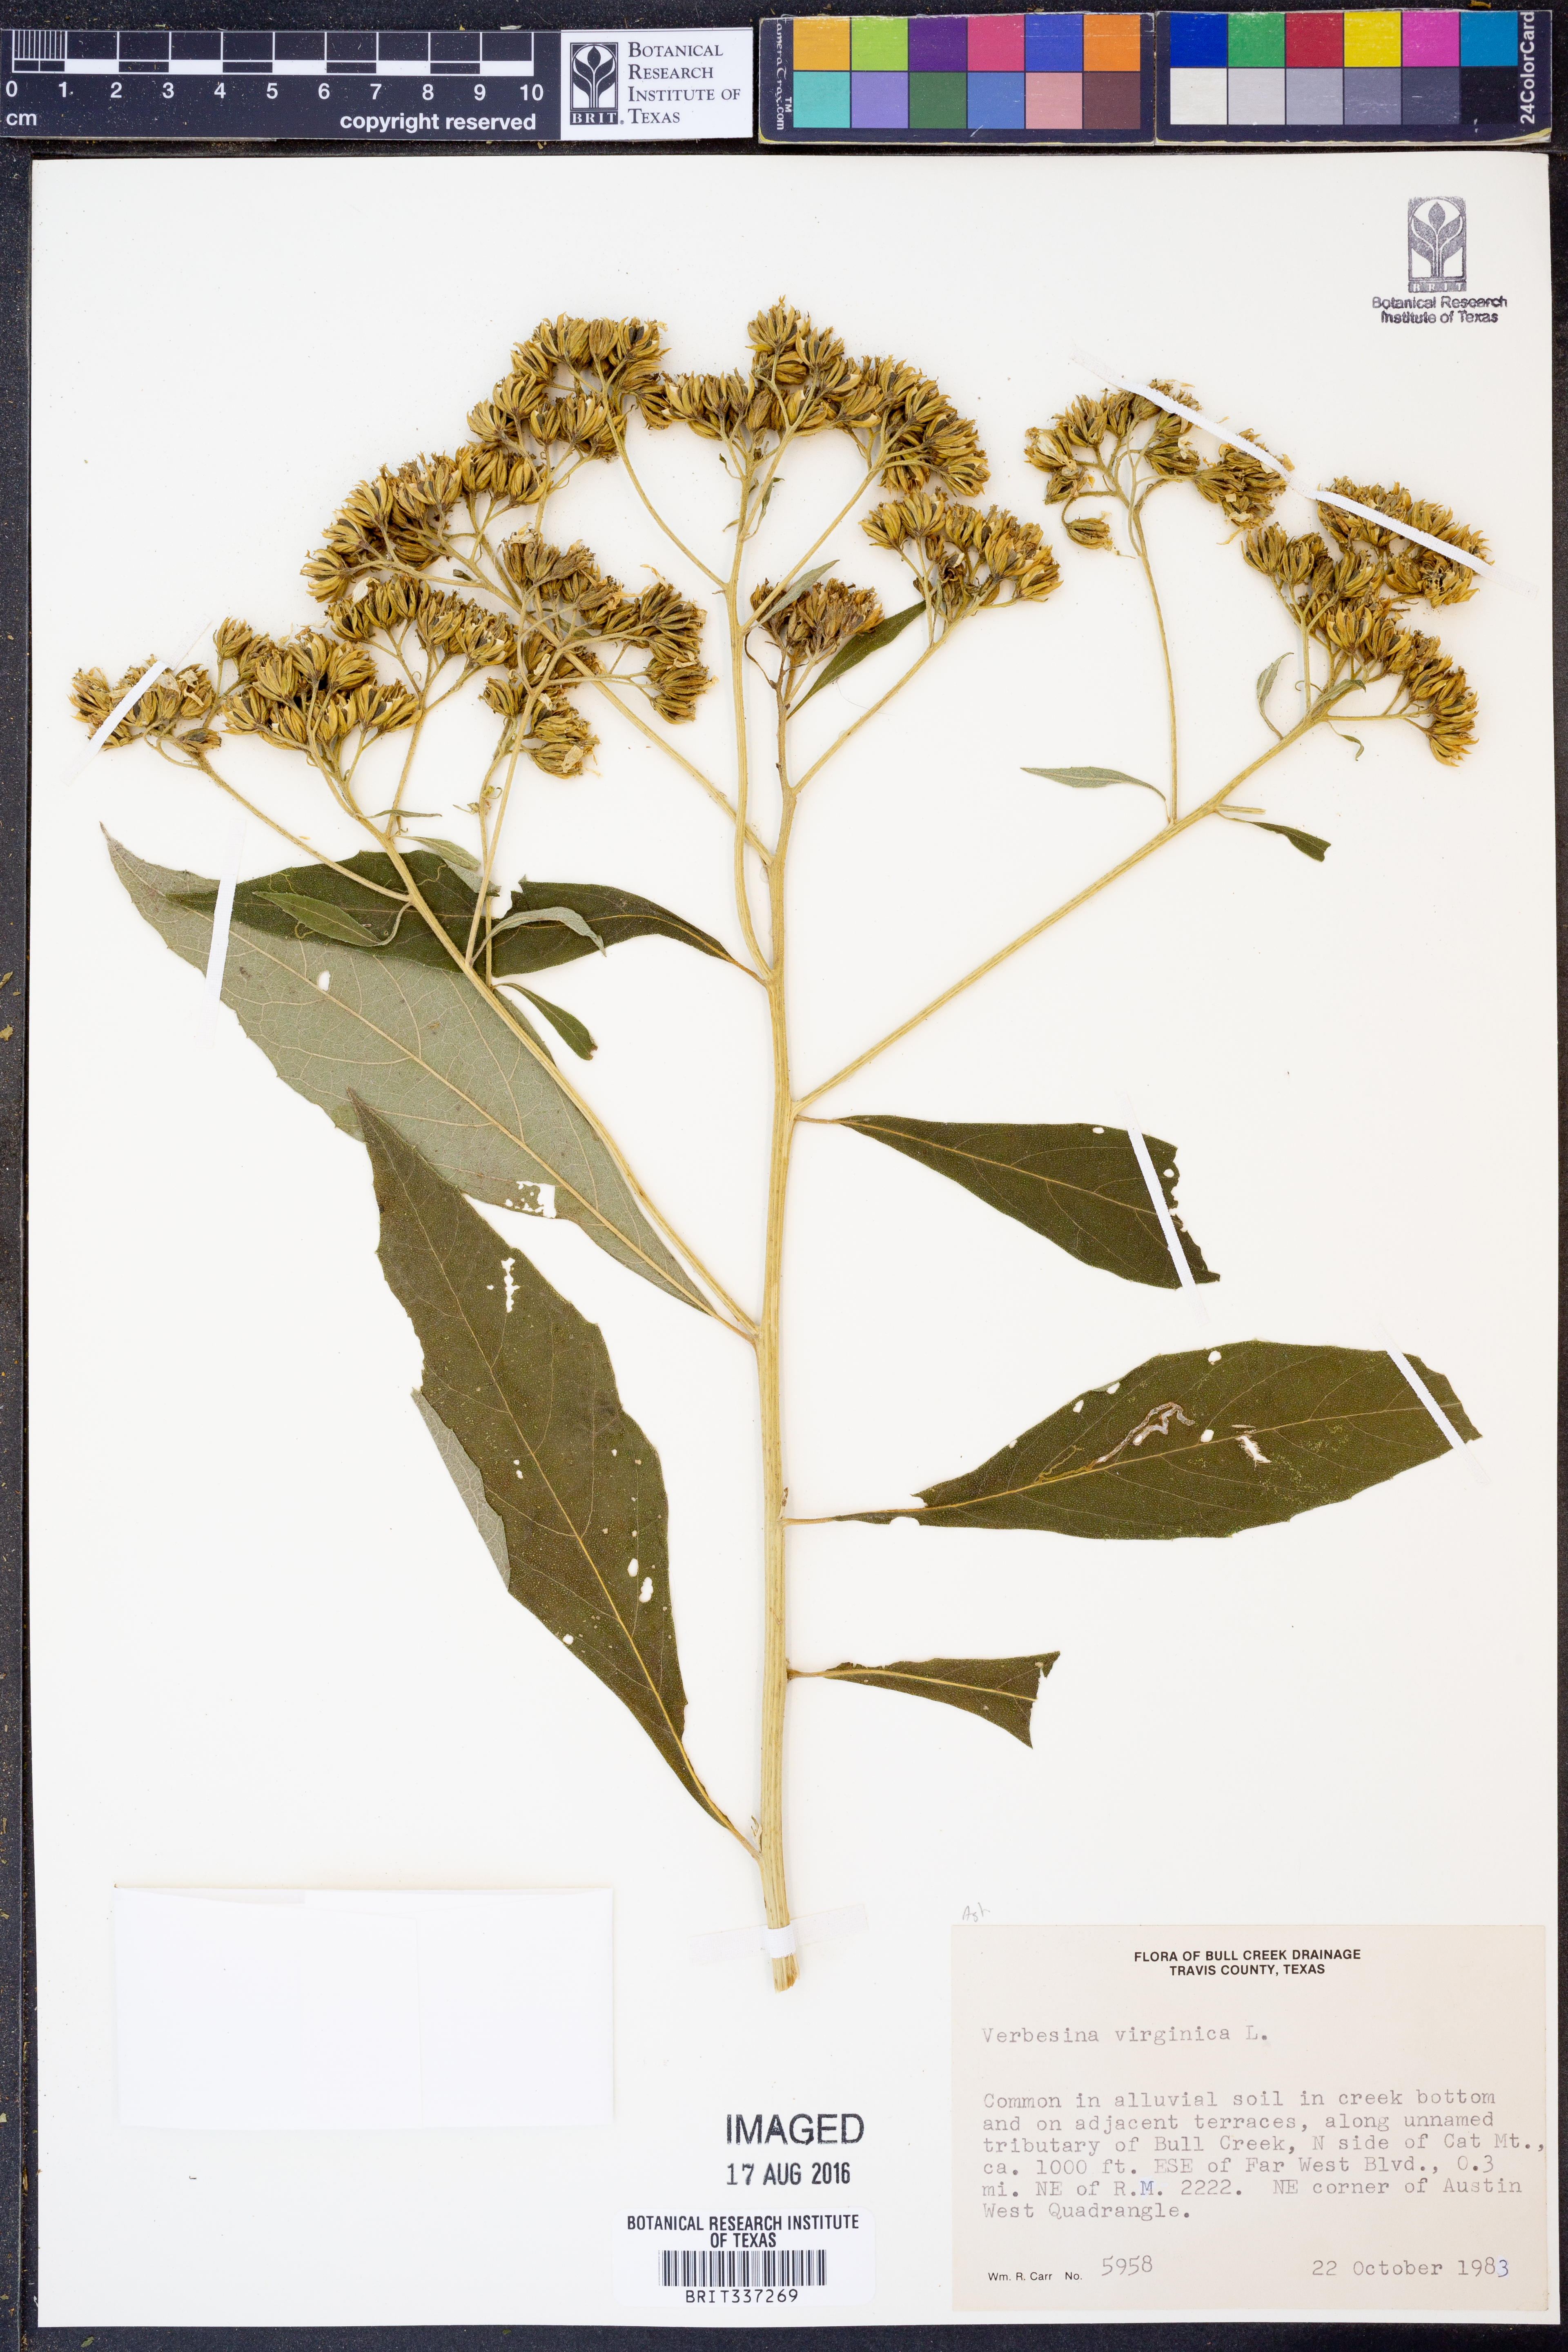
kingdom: Plantae
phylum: Tracheophyta
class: Magnoliopsida
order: Asterales
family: Asteraceae
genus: Verbesina
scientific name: Verbesina virginica
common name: Frostweed
